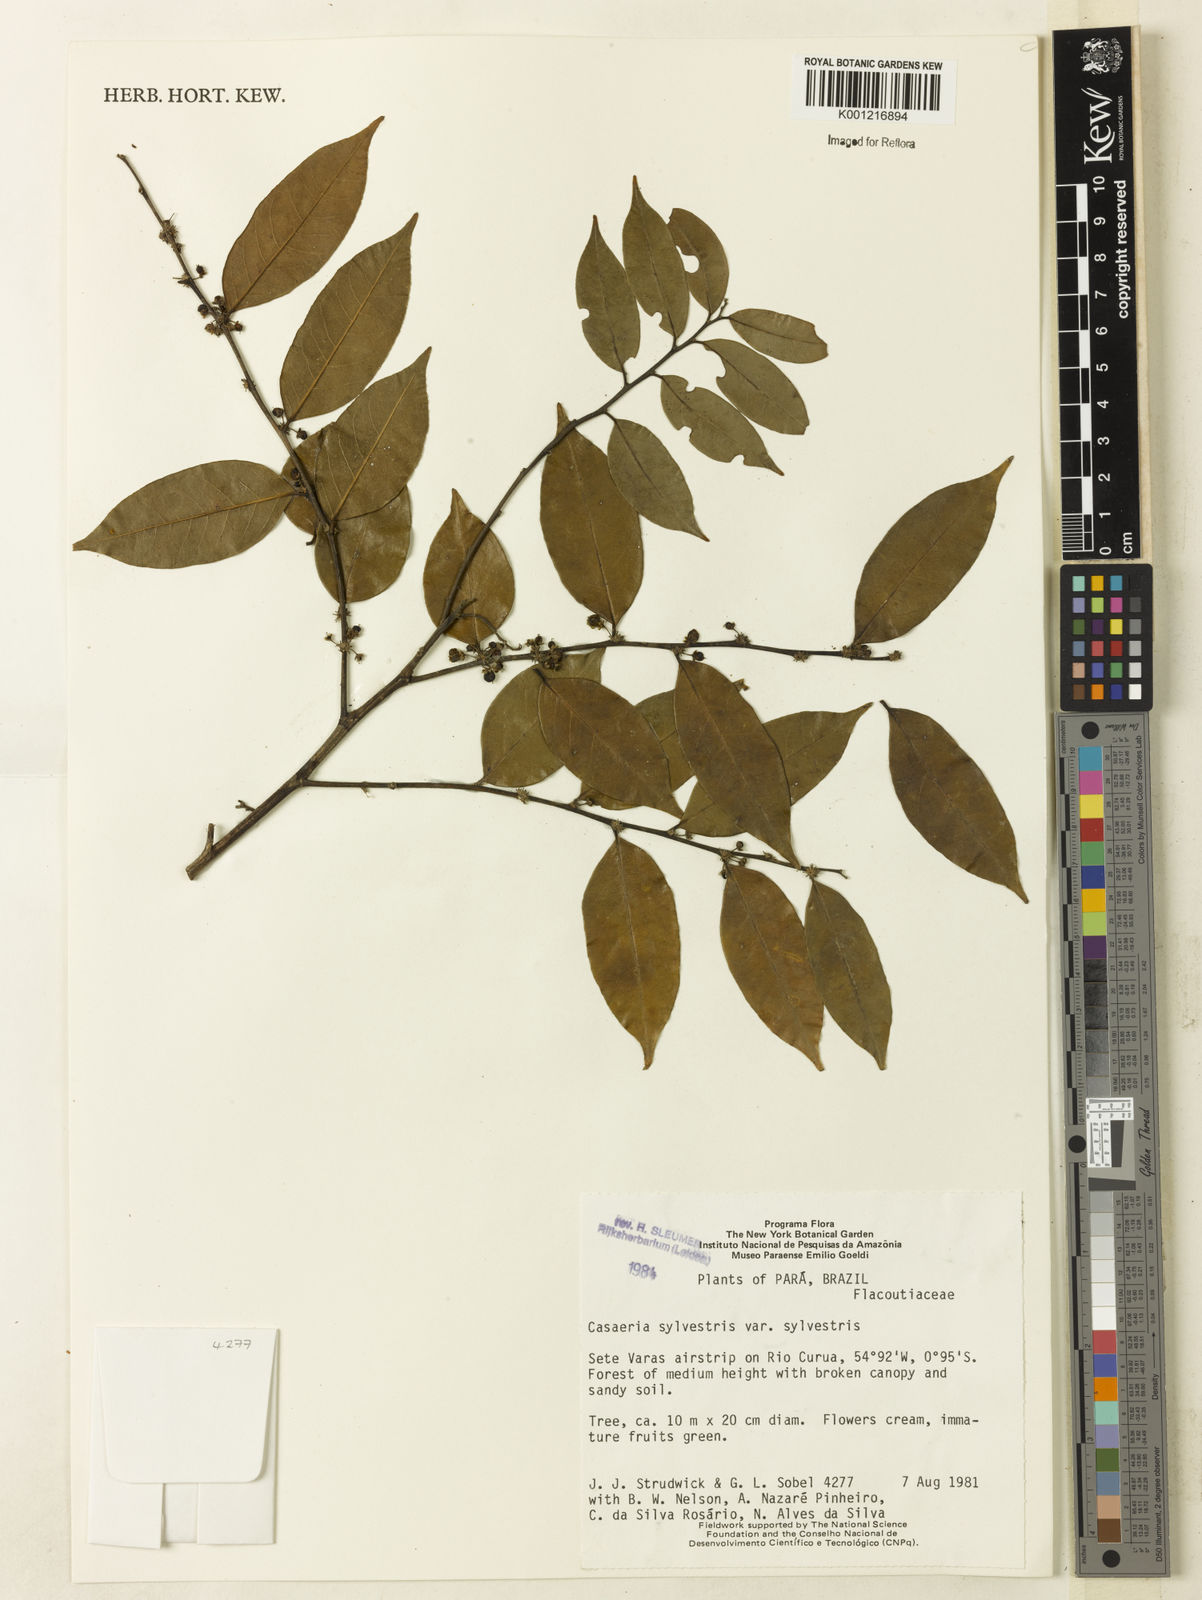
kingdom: Plantae
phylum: Tracheophyta
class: Magnoliopsida
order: Malpighiales
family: Salicaceae
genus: Casearia
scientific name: Casearia sylvestris
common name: Wild sage
